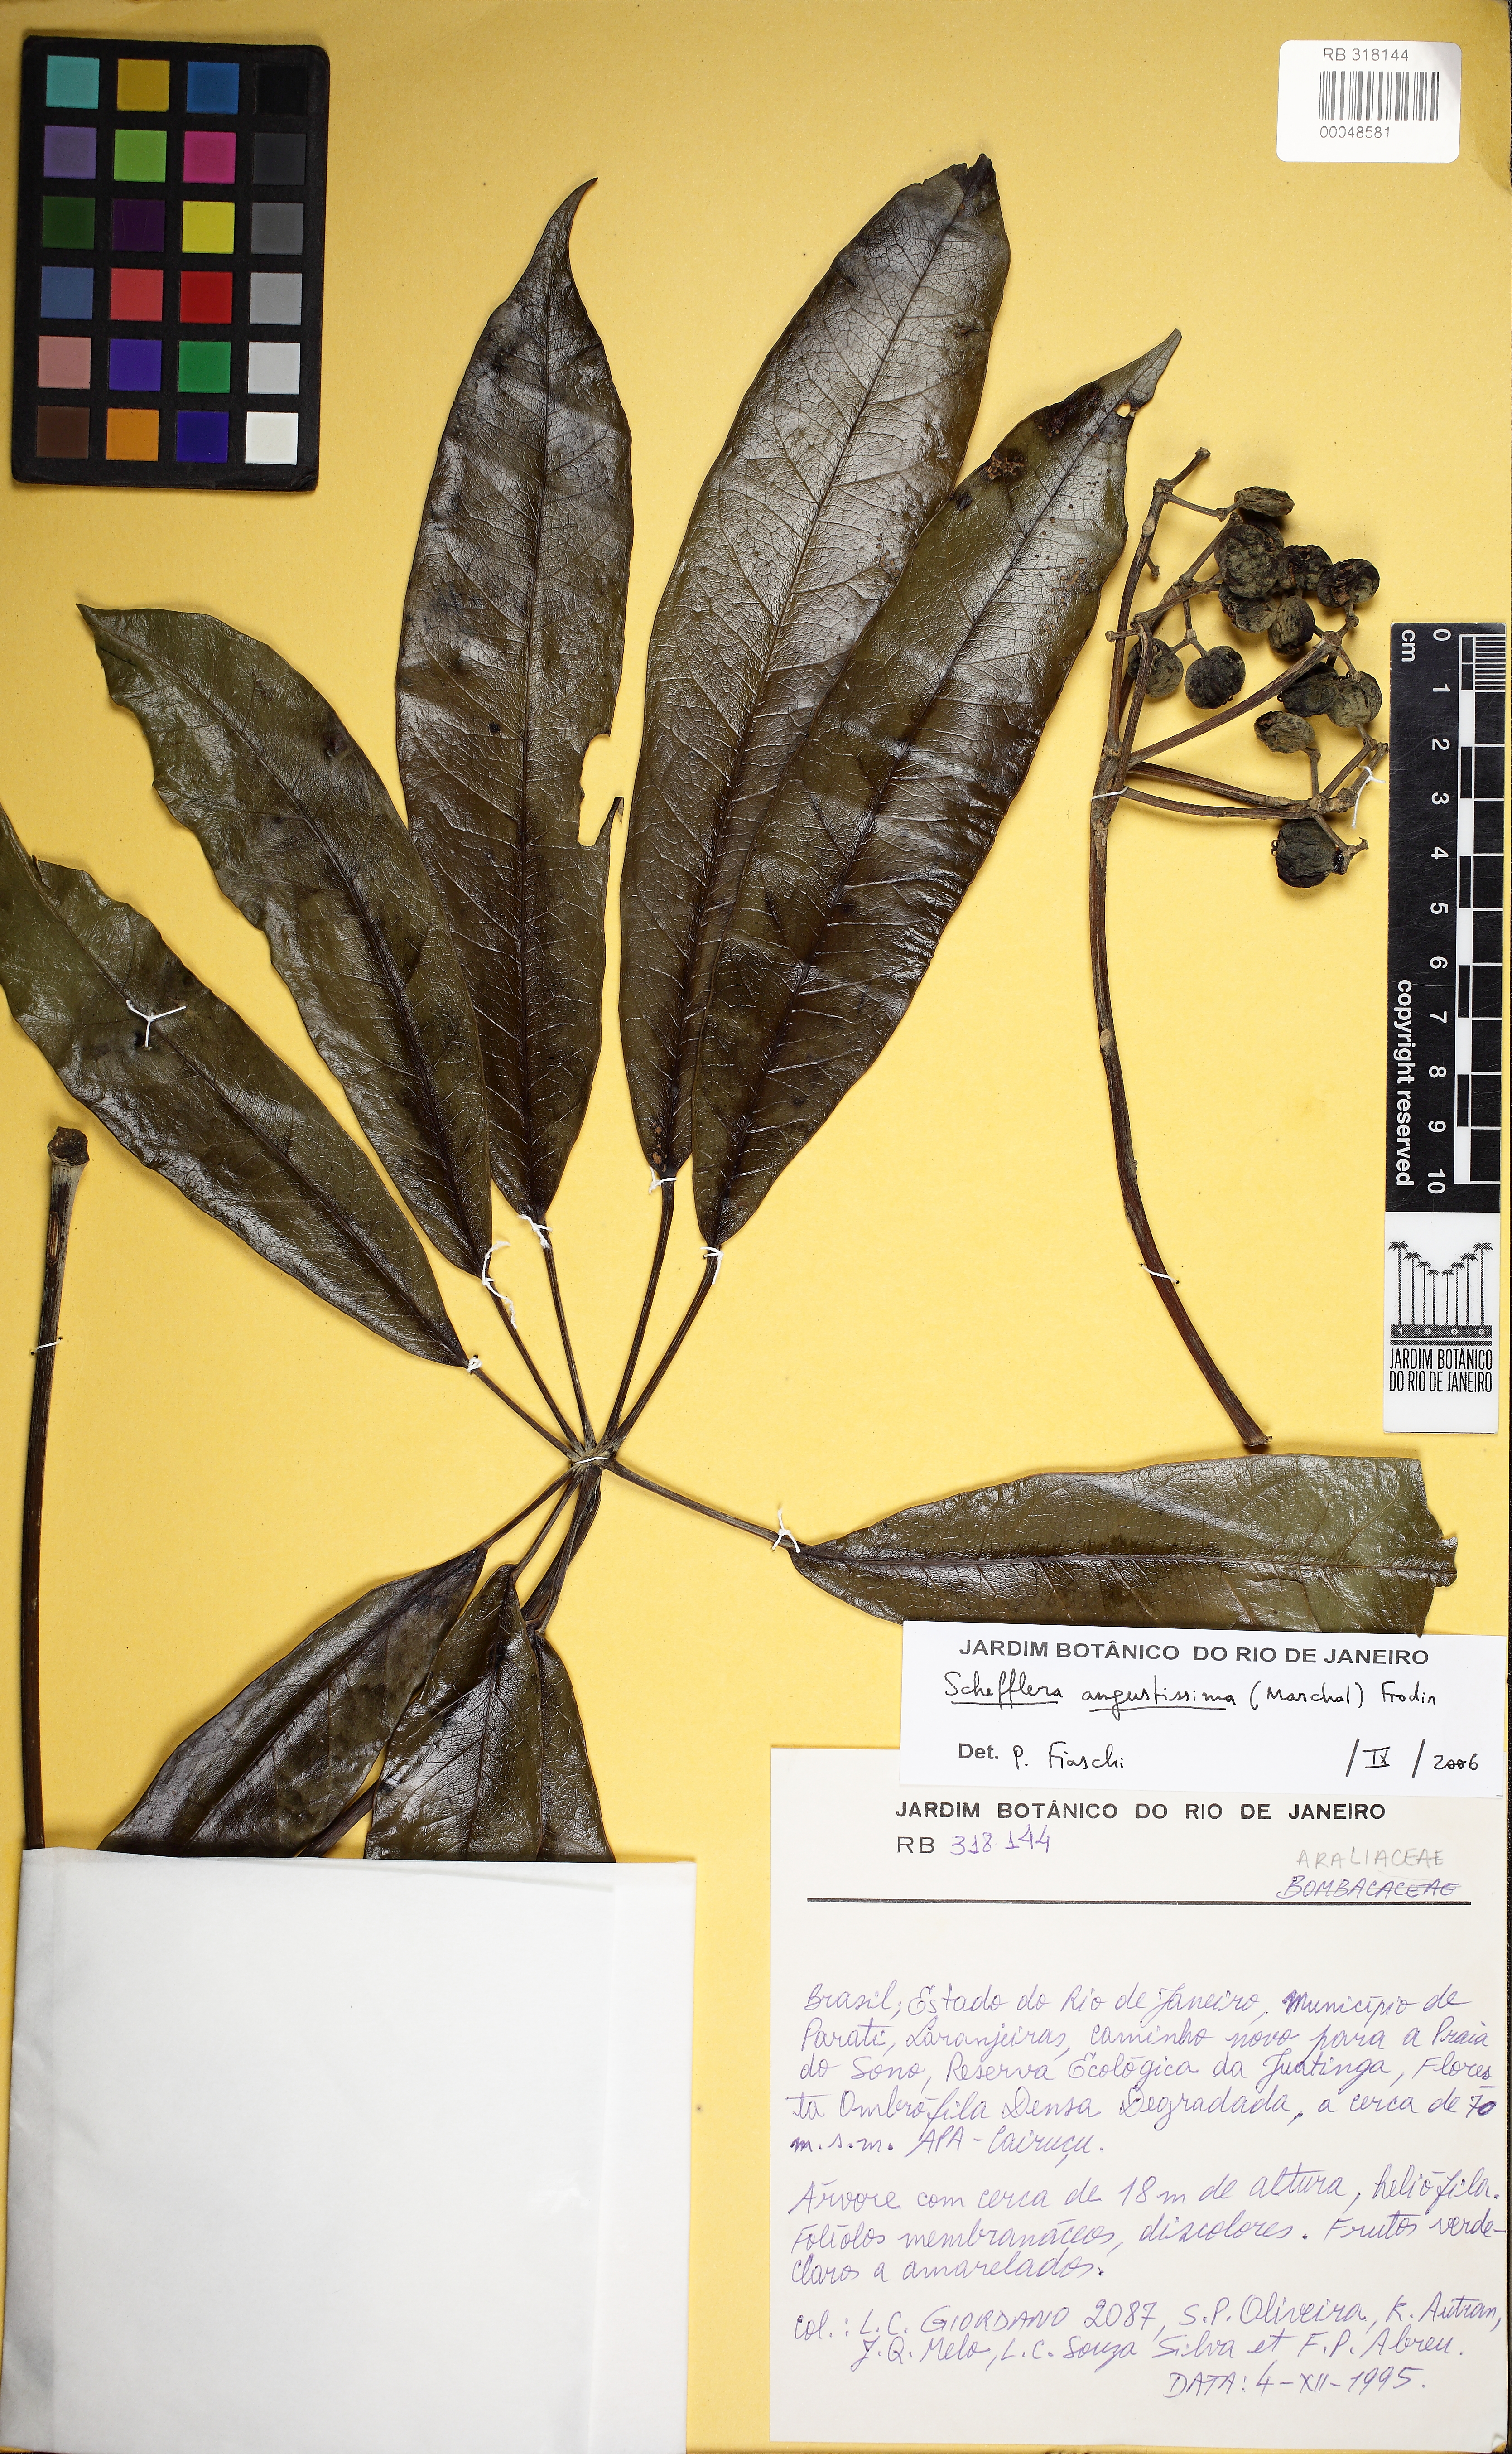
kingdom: Plantae
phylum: Tracheophyta
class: Magnoliopsida
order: Apiales
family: Araliaceae
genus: Didymopanax
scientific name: Didymopanax angustissimus
